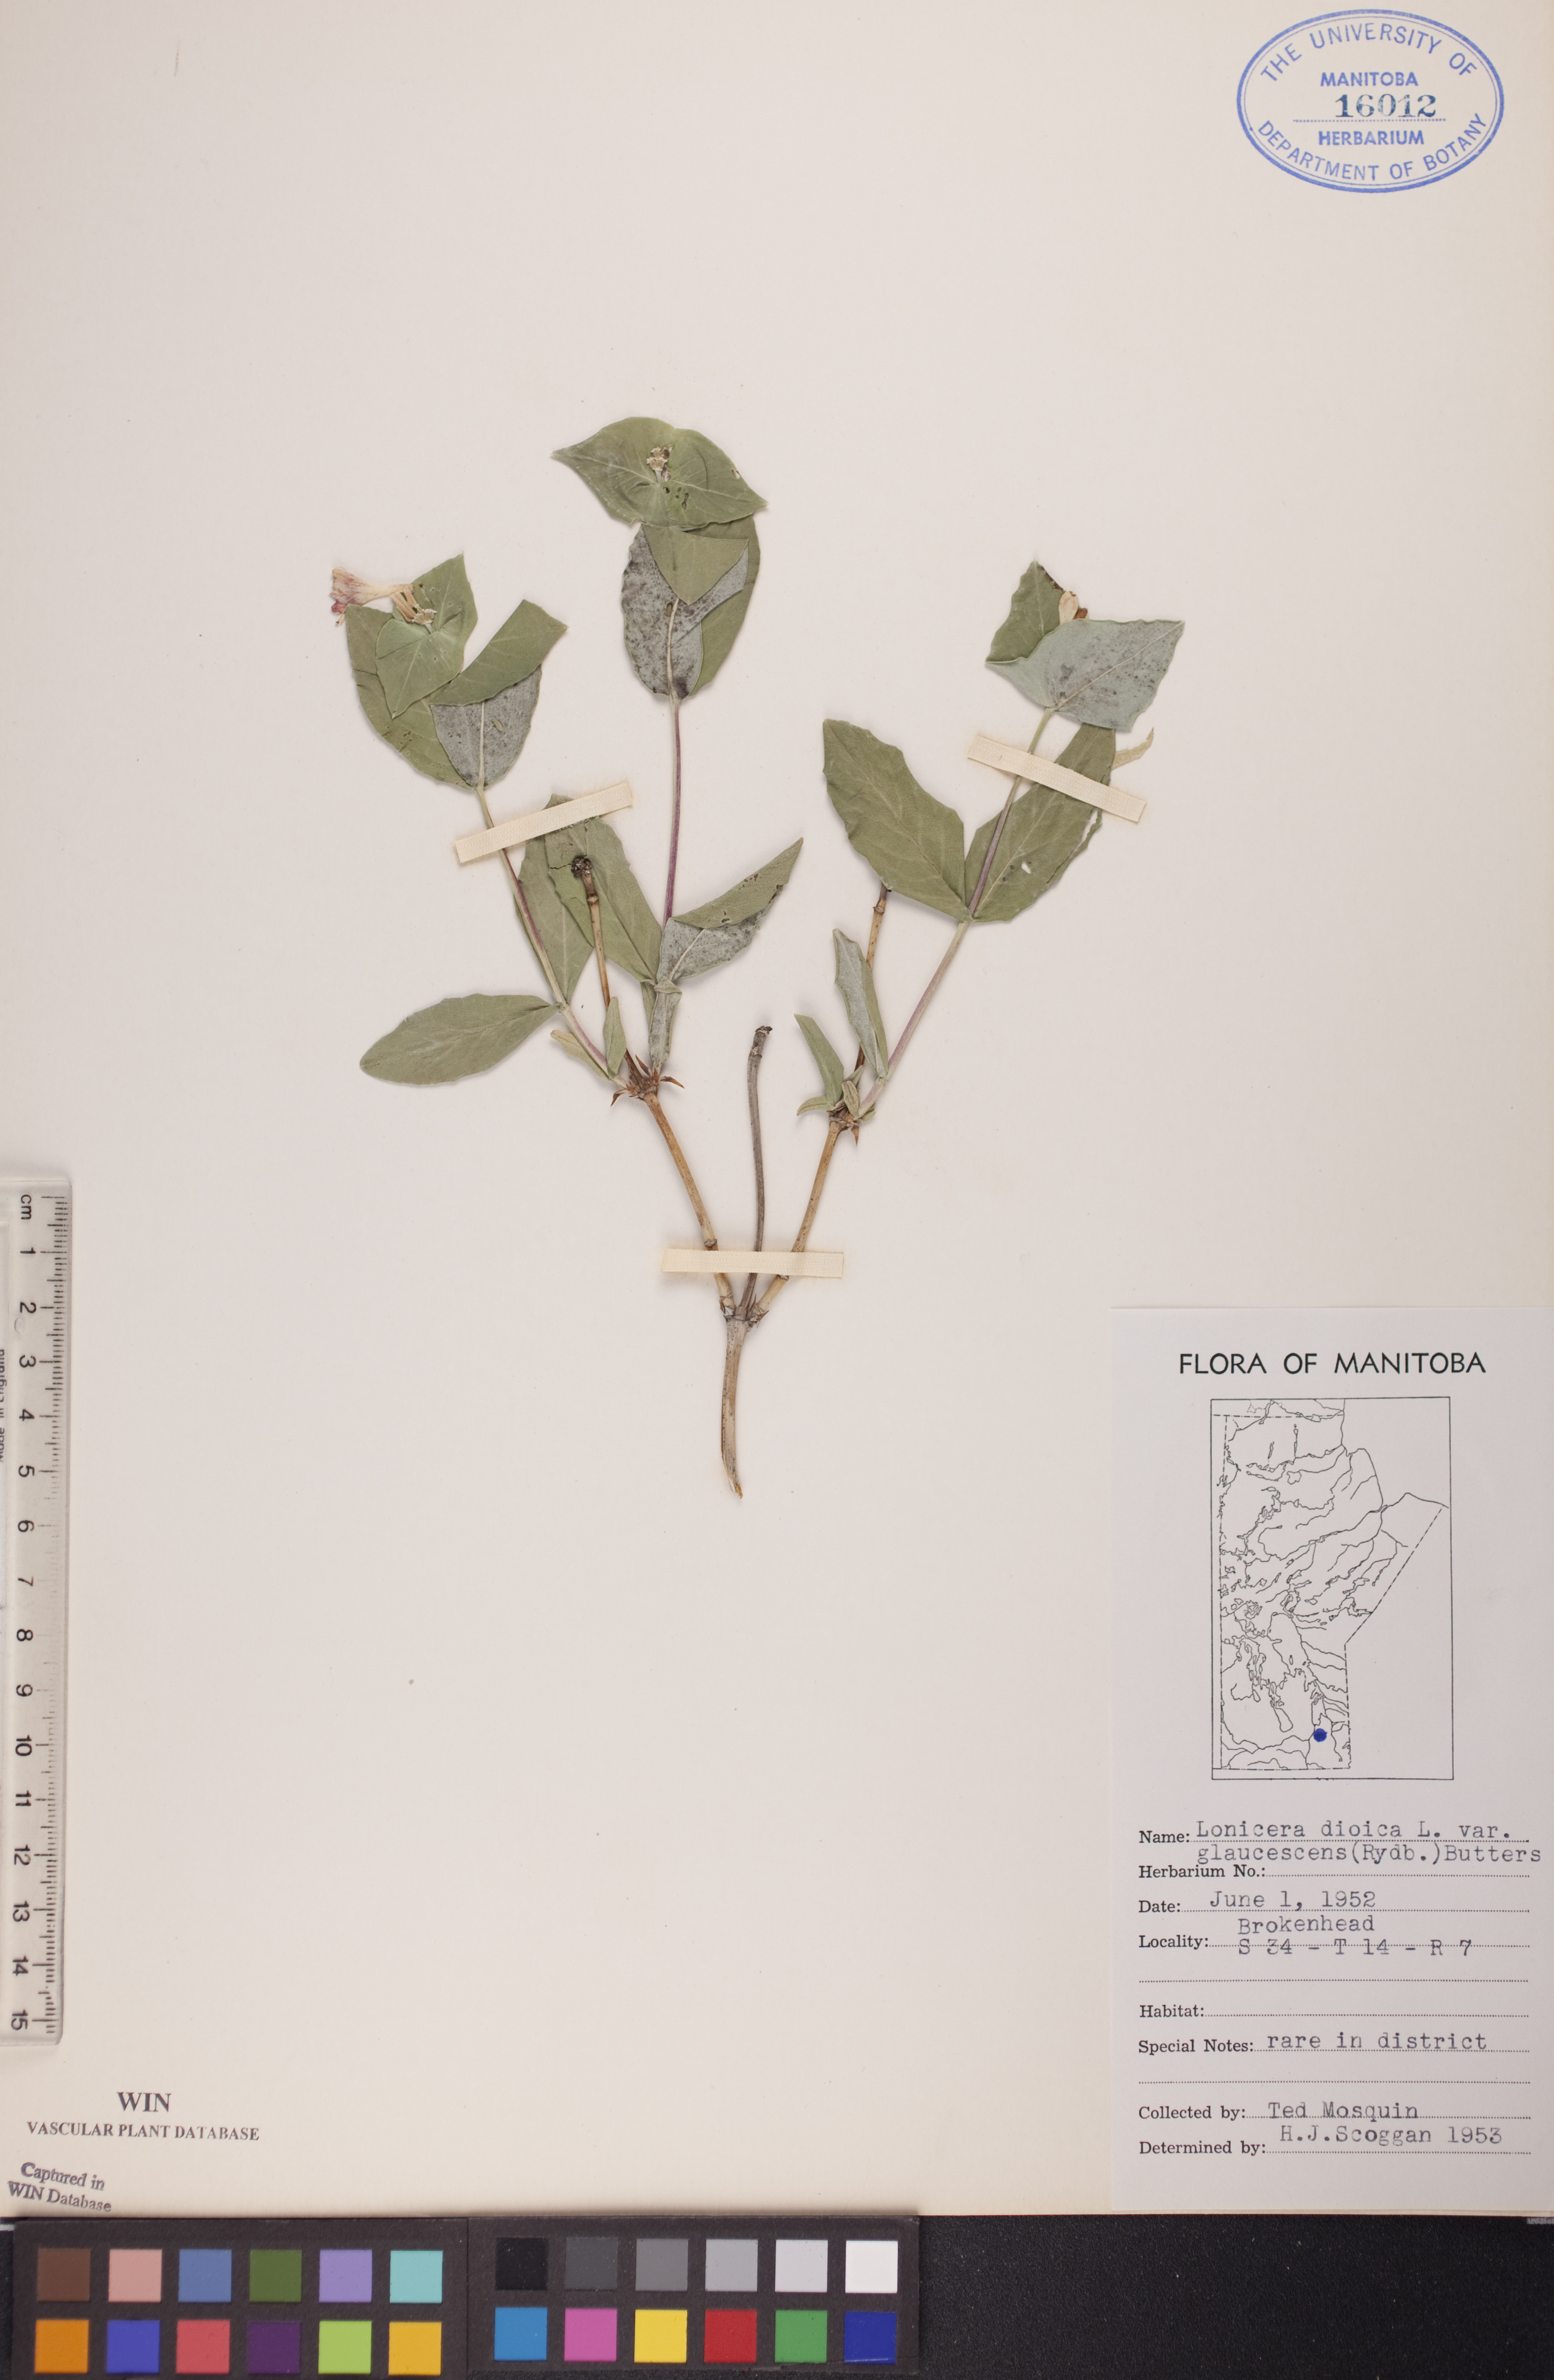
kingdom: Plantae
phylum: Tracheophyta
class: Magnoliopsida
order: Dipsacales
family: Caprifoliaceae
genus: Lonicera
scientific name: Lonicera dioica
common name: Limber honeysuckle
